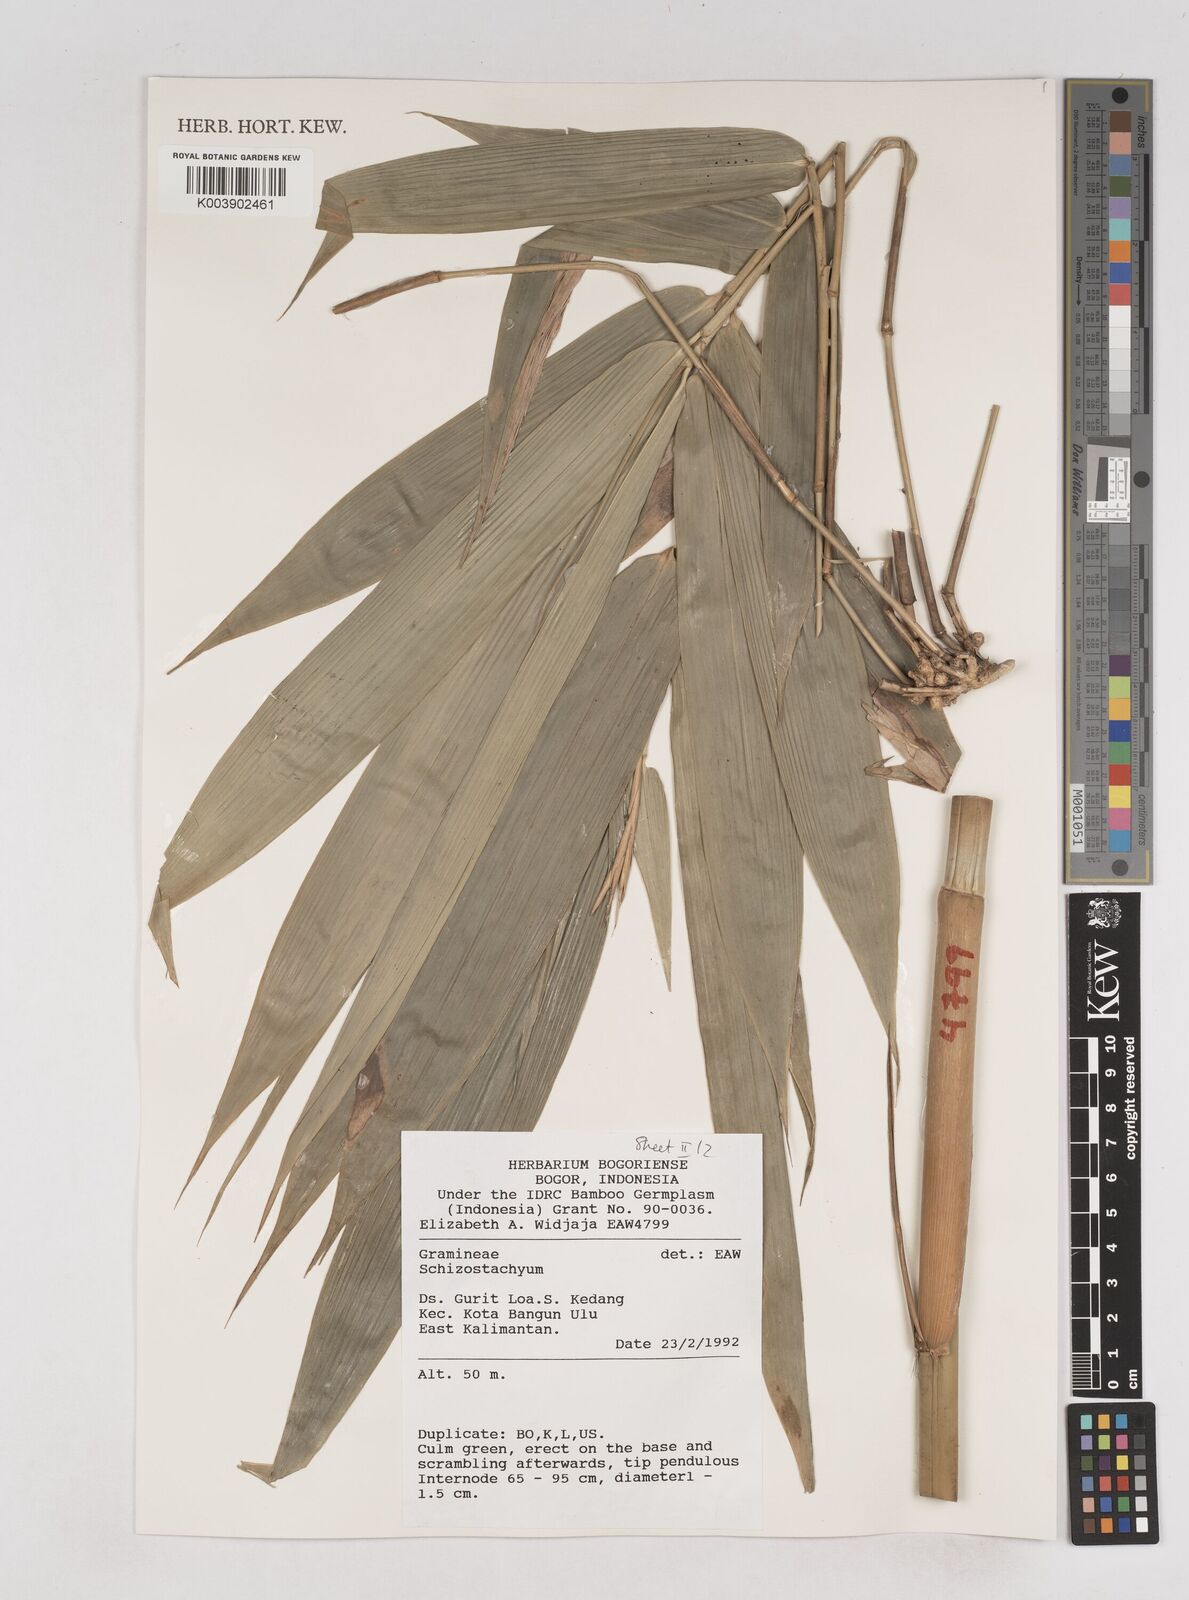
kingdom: Plantae
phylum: Tracheophyta
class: Liliopsida
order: Poales
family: Poaceae
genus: Schizostachyum
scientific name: Schizostachyum
